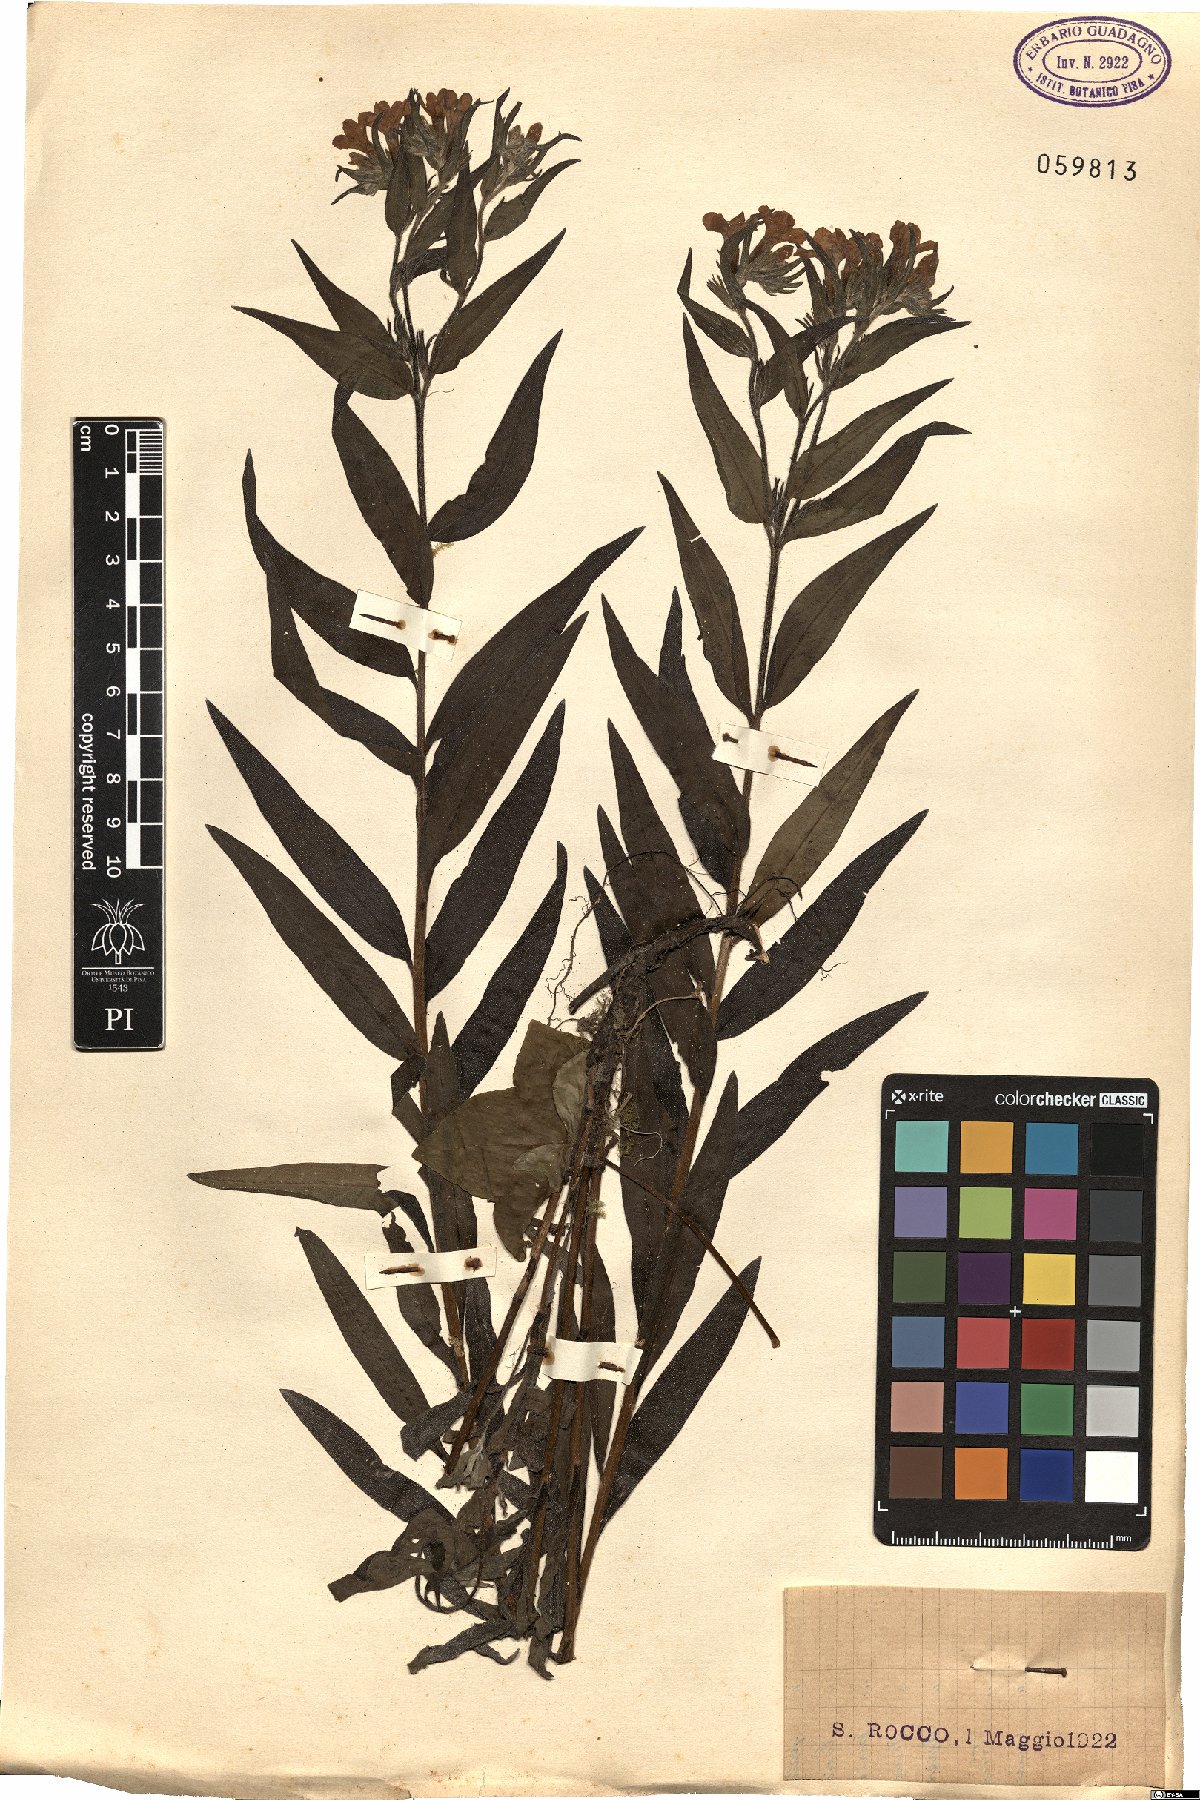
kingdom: Plantae
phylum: Tracheophyta
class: Magnoliopsida
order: Boraginales
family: Boraginaceae
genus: Aegonychon
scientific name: Aegonychon purpurocaeruleum
